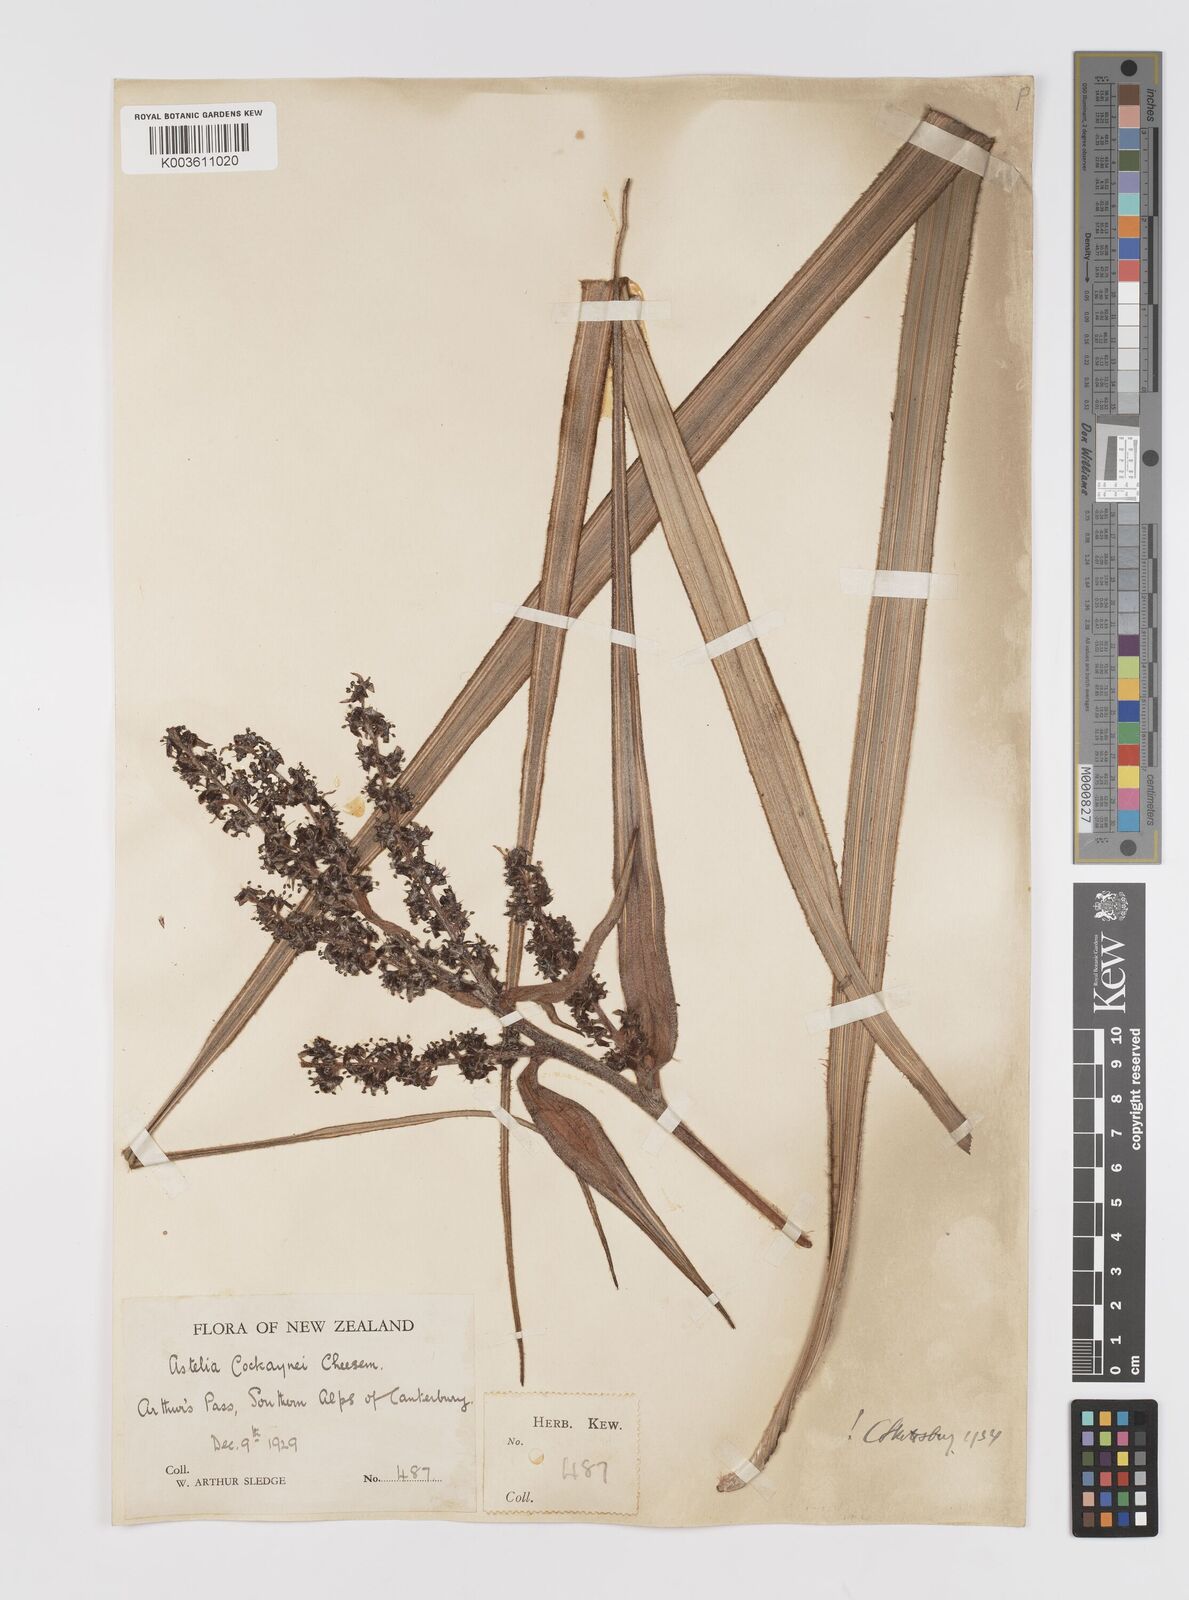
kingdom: Plantae
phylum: Tracheophyta
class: Liliopsida
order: Asparagales
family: Asteliaceae
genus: Astelia
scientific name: Astelia nervosa
